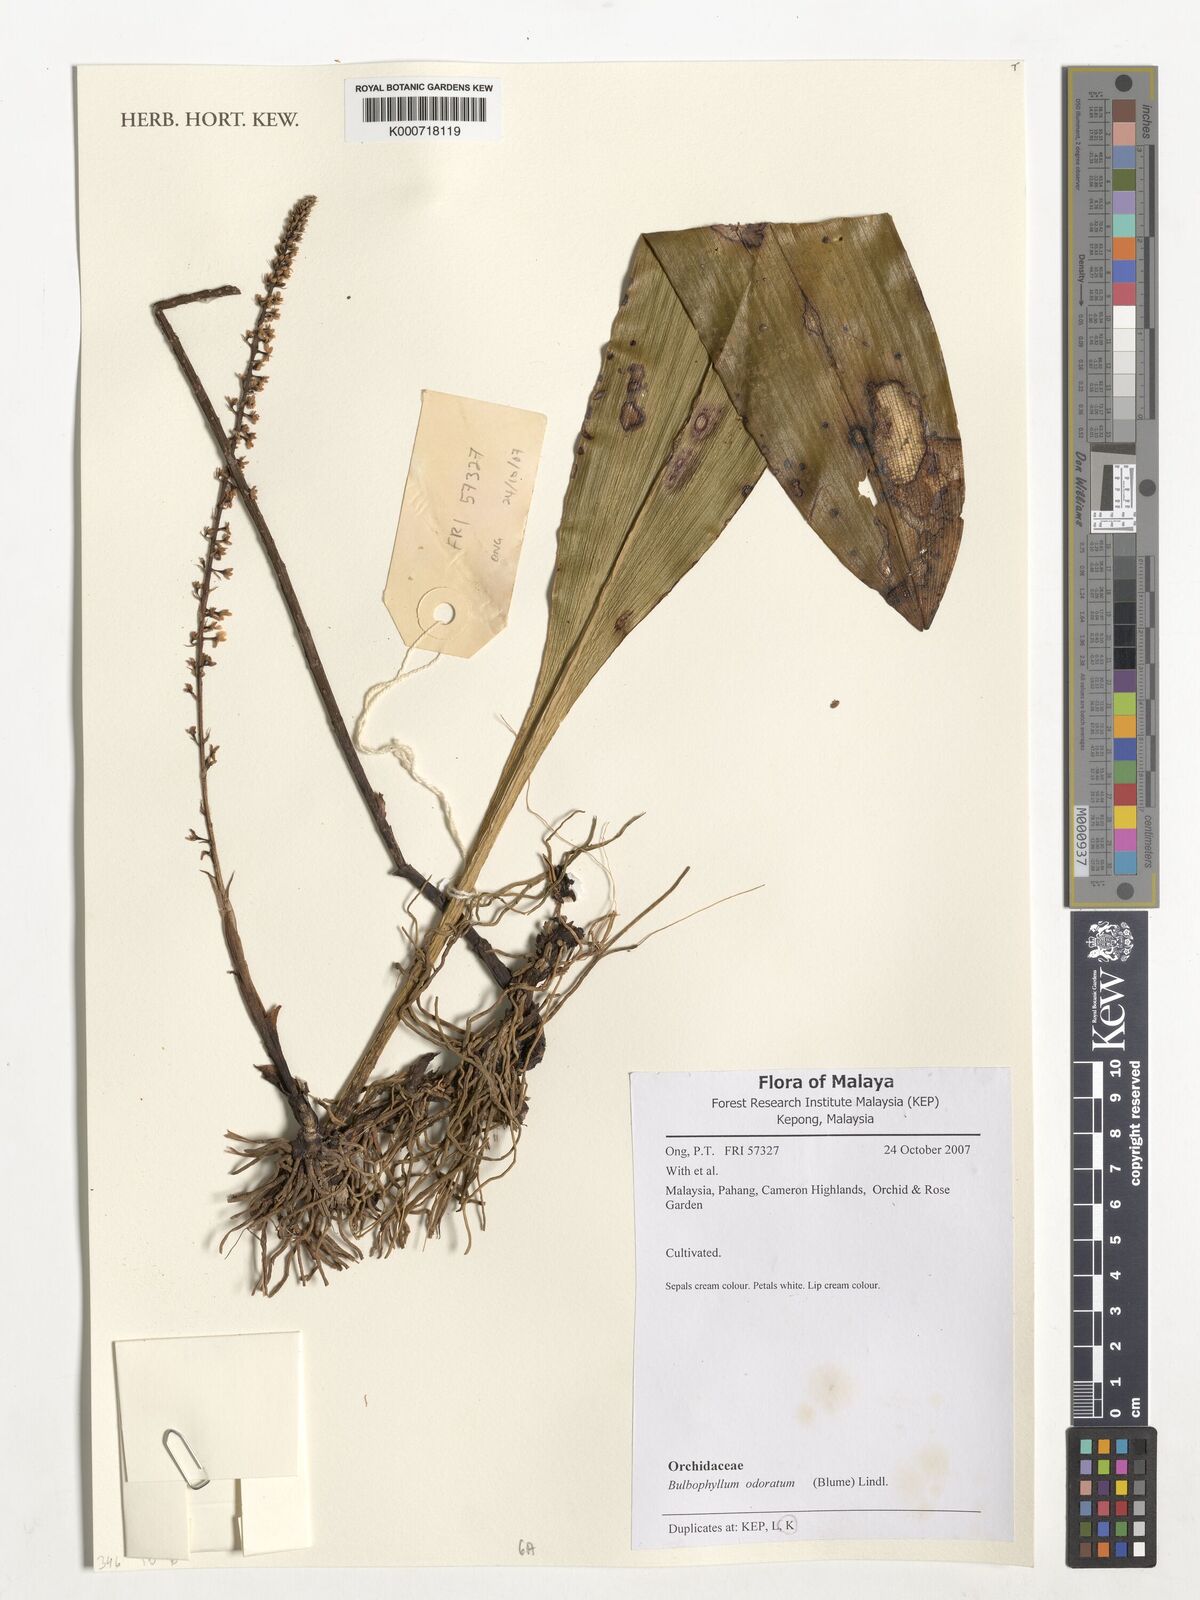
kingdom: Plantae
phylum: Tracheophyta
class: Liliopsida
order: Asparagales
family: Orchidaceae
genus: Bulbophyllum
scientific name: Bulbophyllum odoratum
